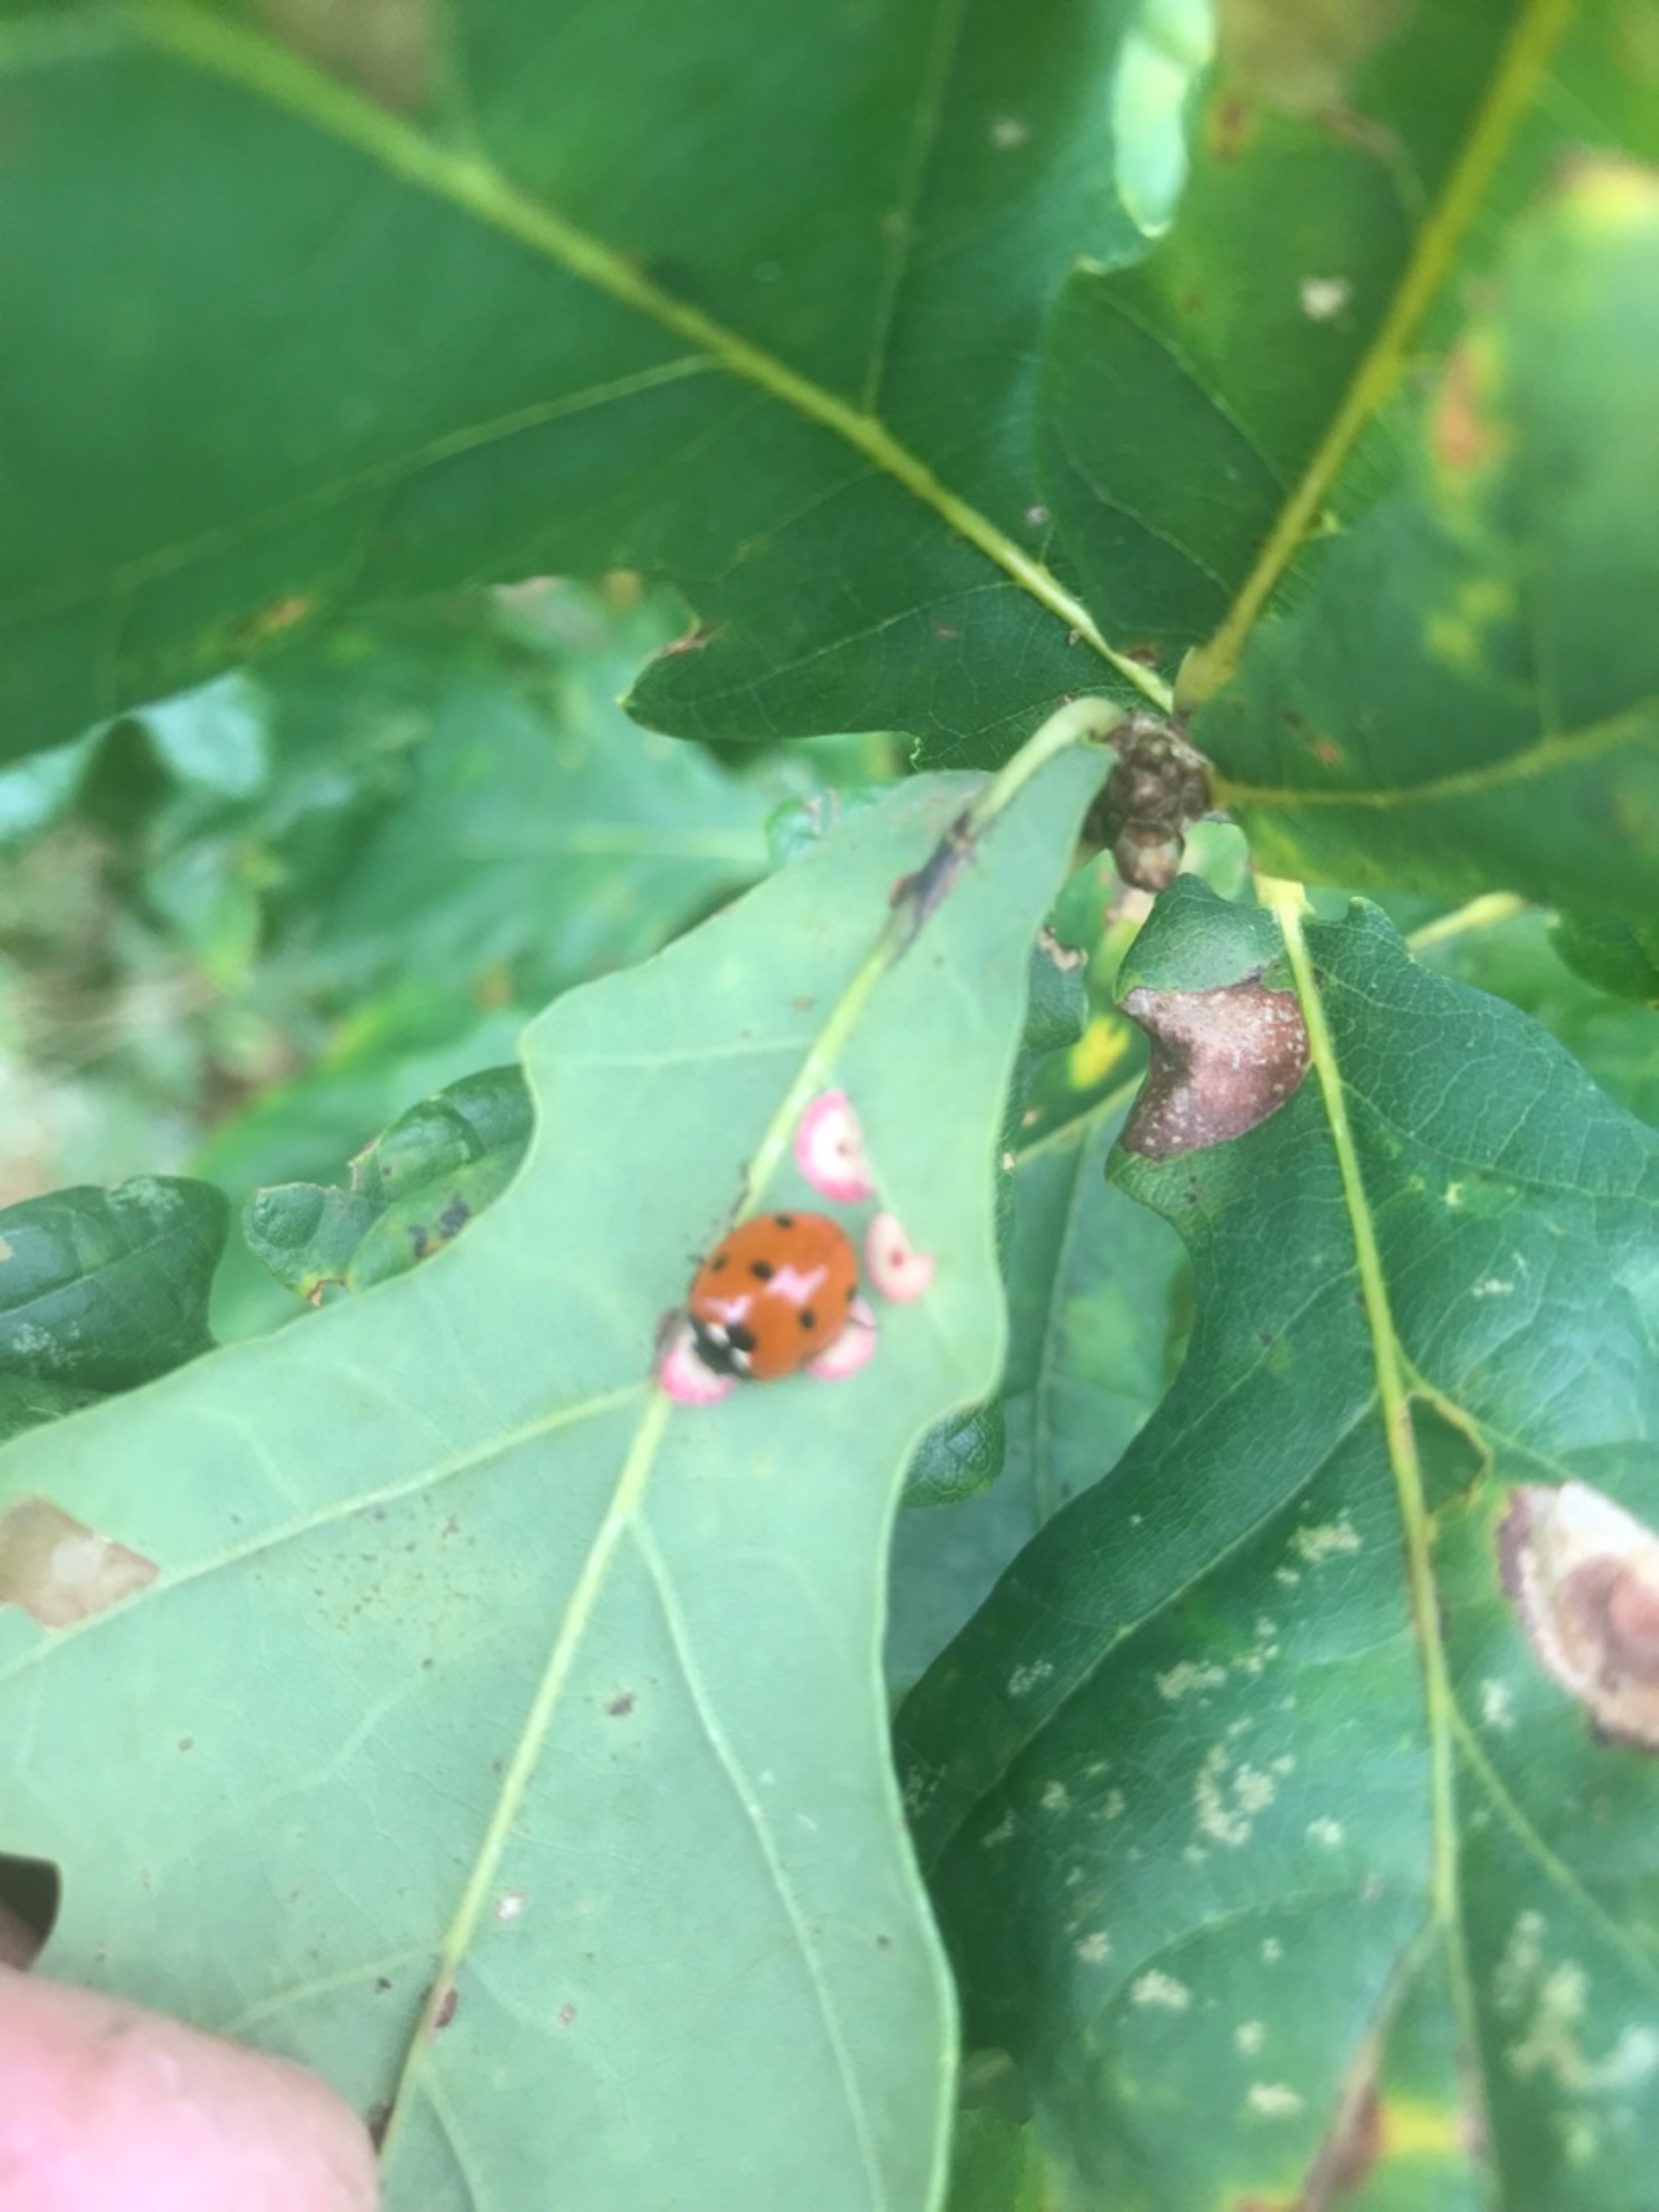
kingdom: Animalia
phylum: Arthropoda
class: Insecta
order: Coleoptera
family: Coccinellidae
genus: Coccinella
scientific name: Coccinella septempunctata
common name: Syvplettet mariehøne
